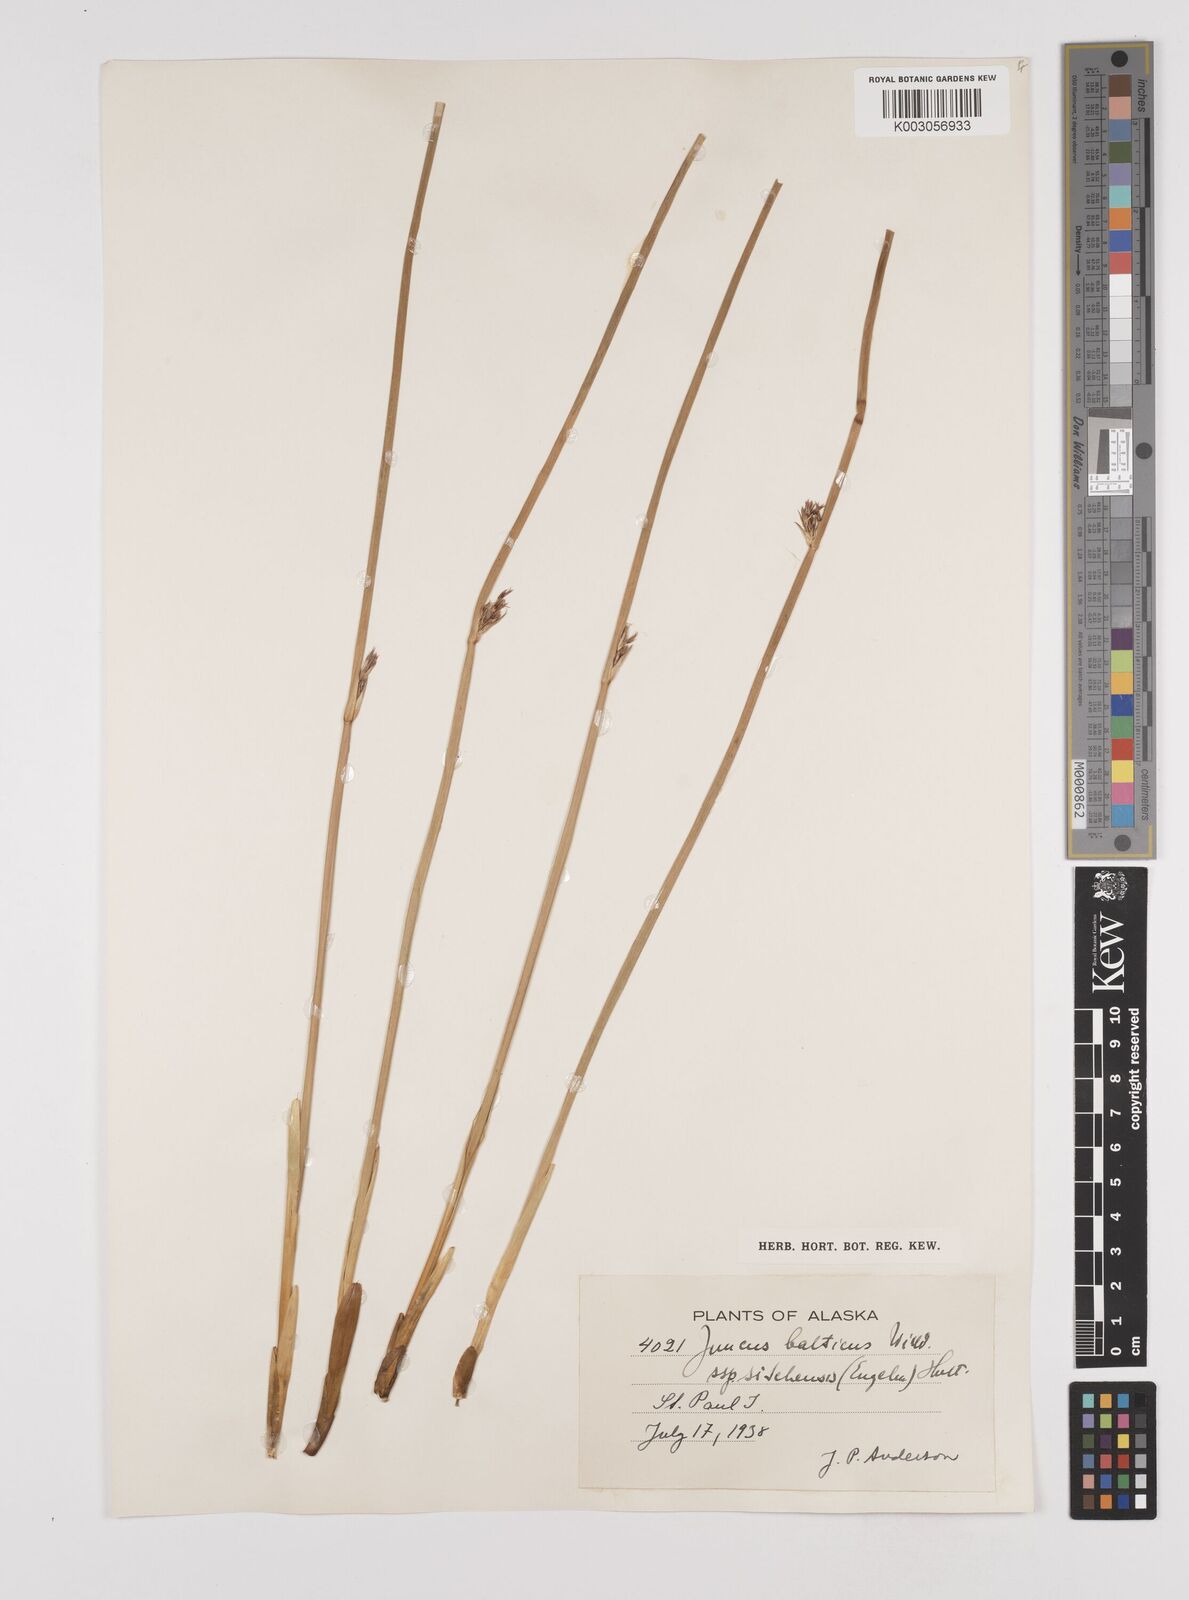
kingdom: Plantae
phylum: Tracheophyta
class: Liliopsida
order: Poales
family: Juncaceae
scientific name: Juncaceae
